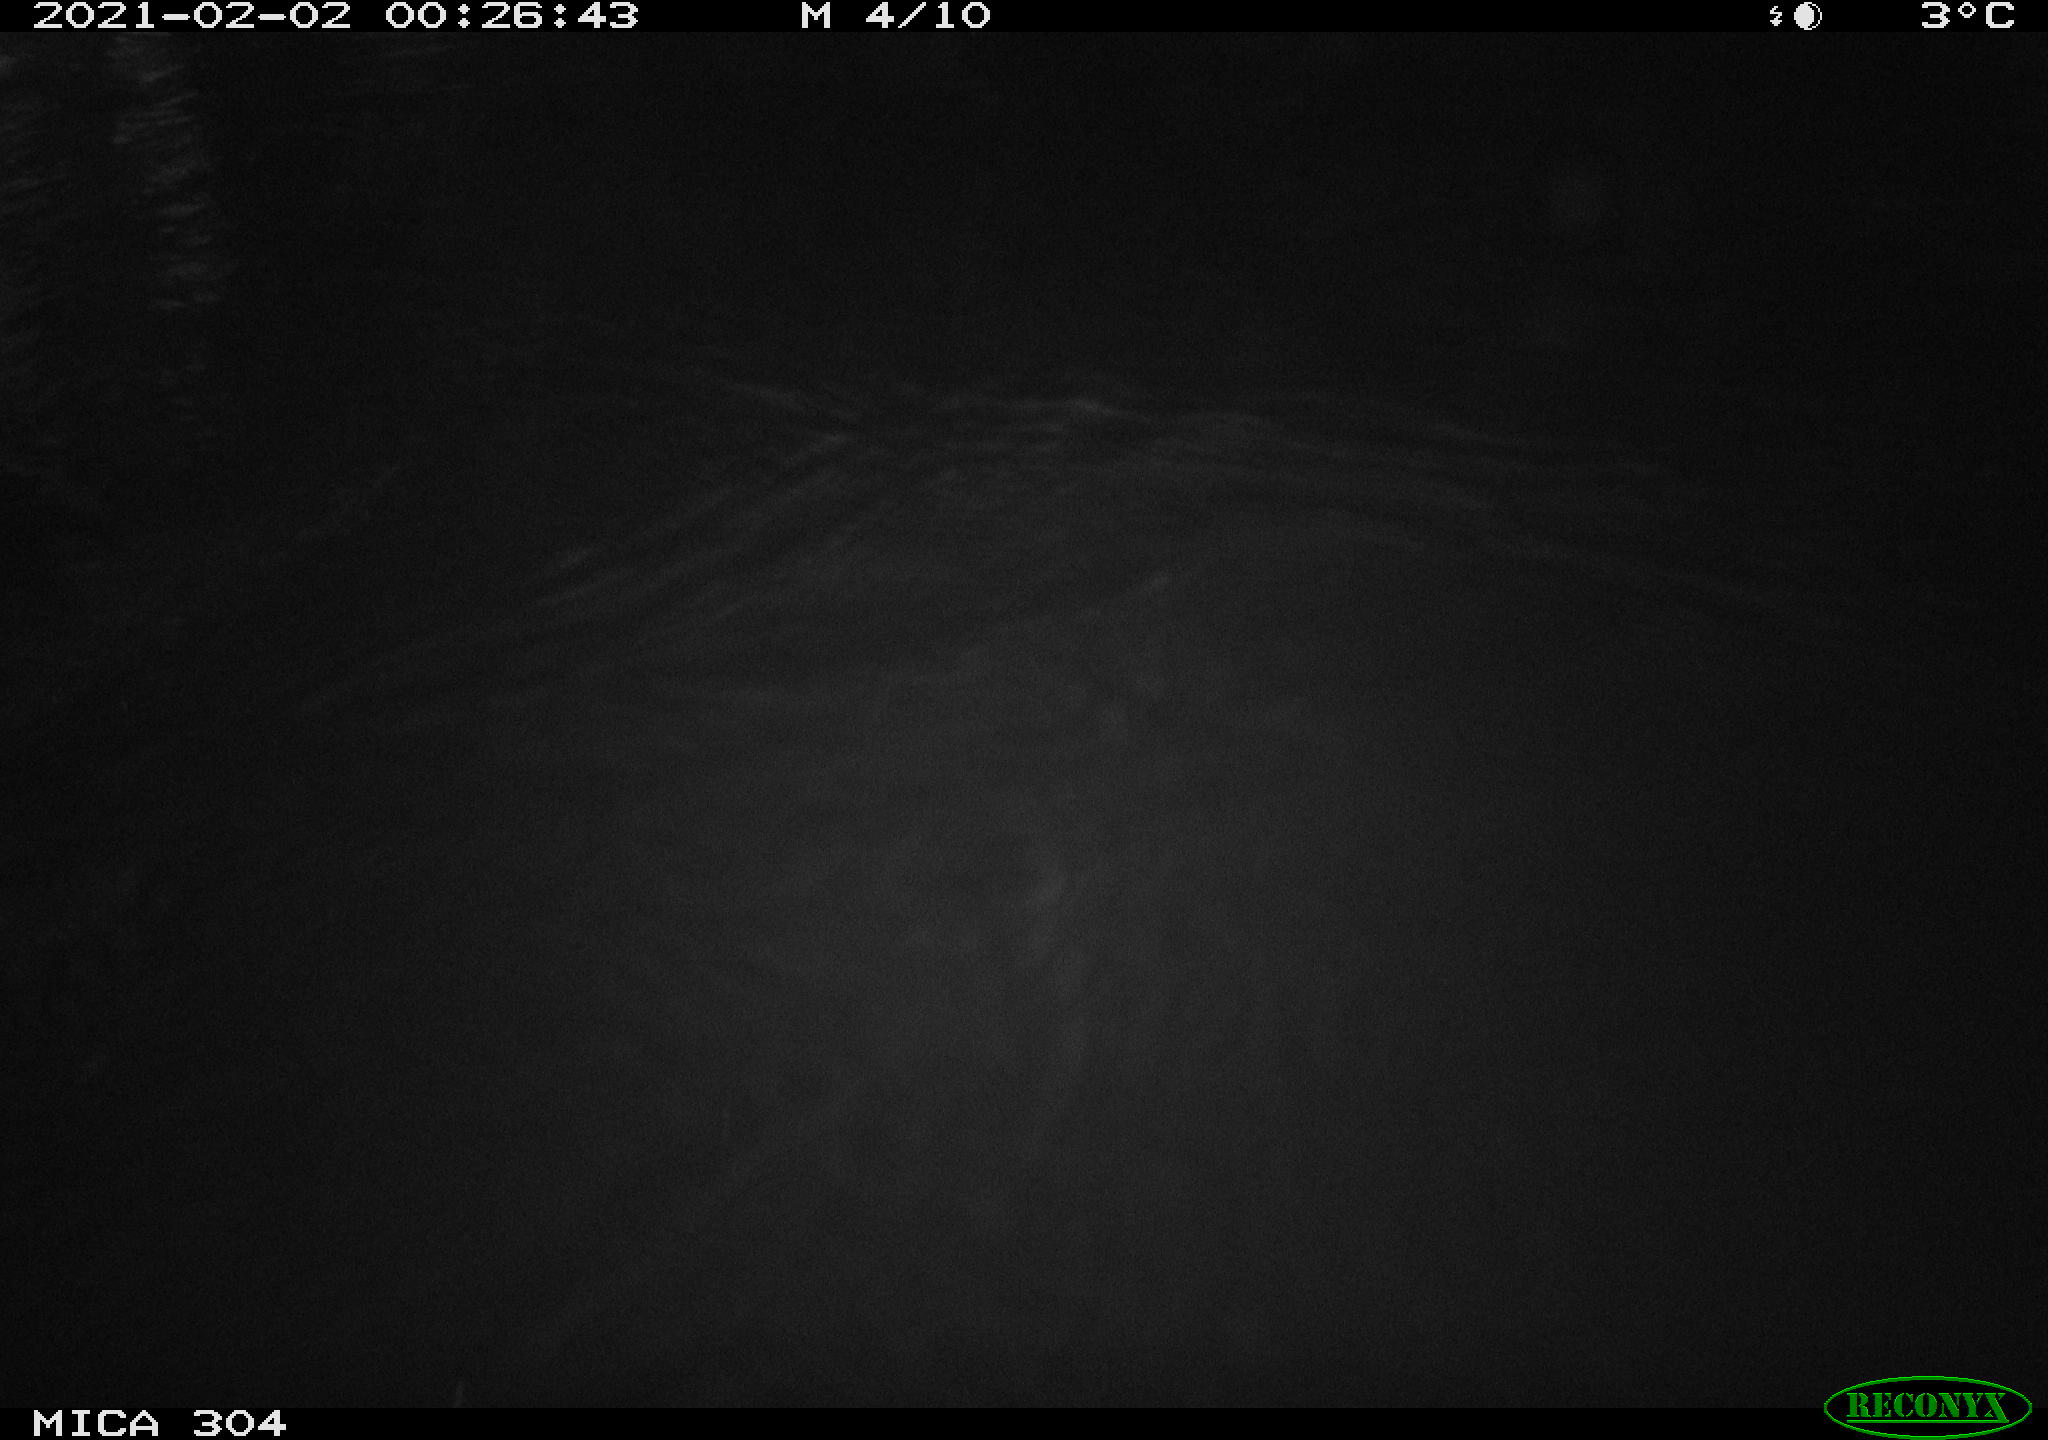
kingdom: Animalia
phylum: Chordata
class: Mammalia
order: Rodentia
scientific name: Rodentia
